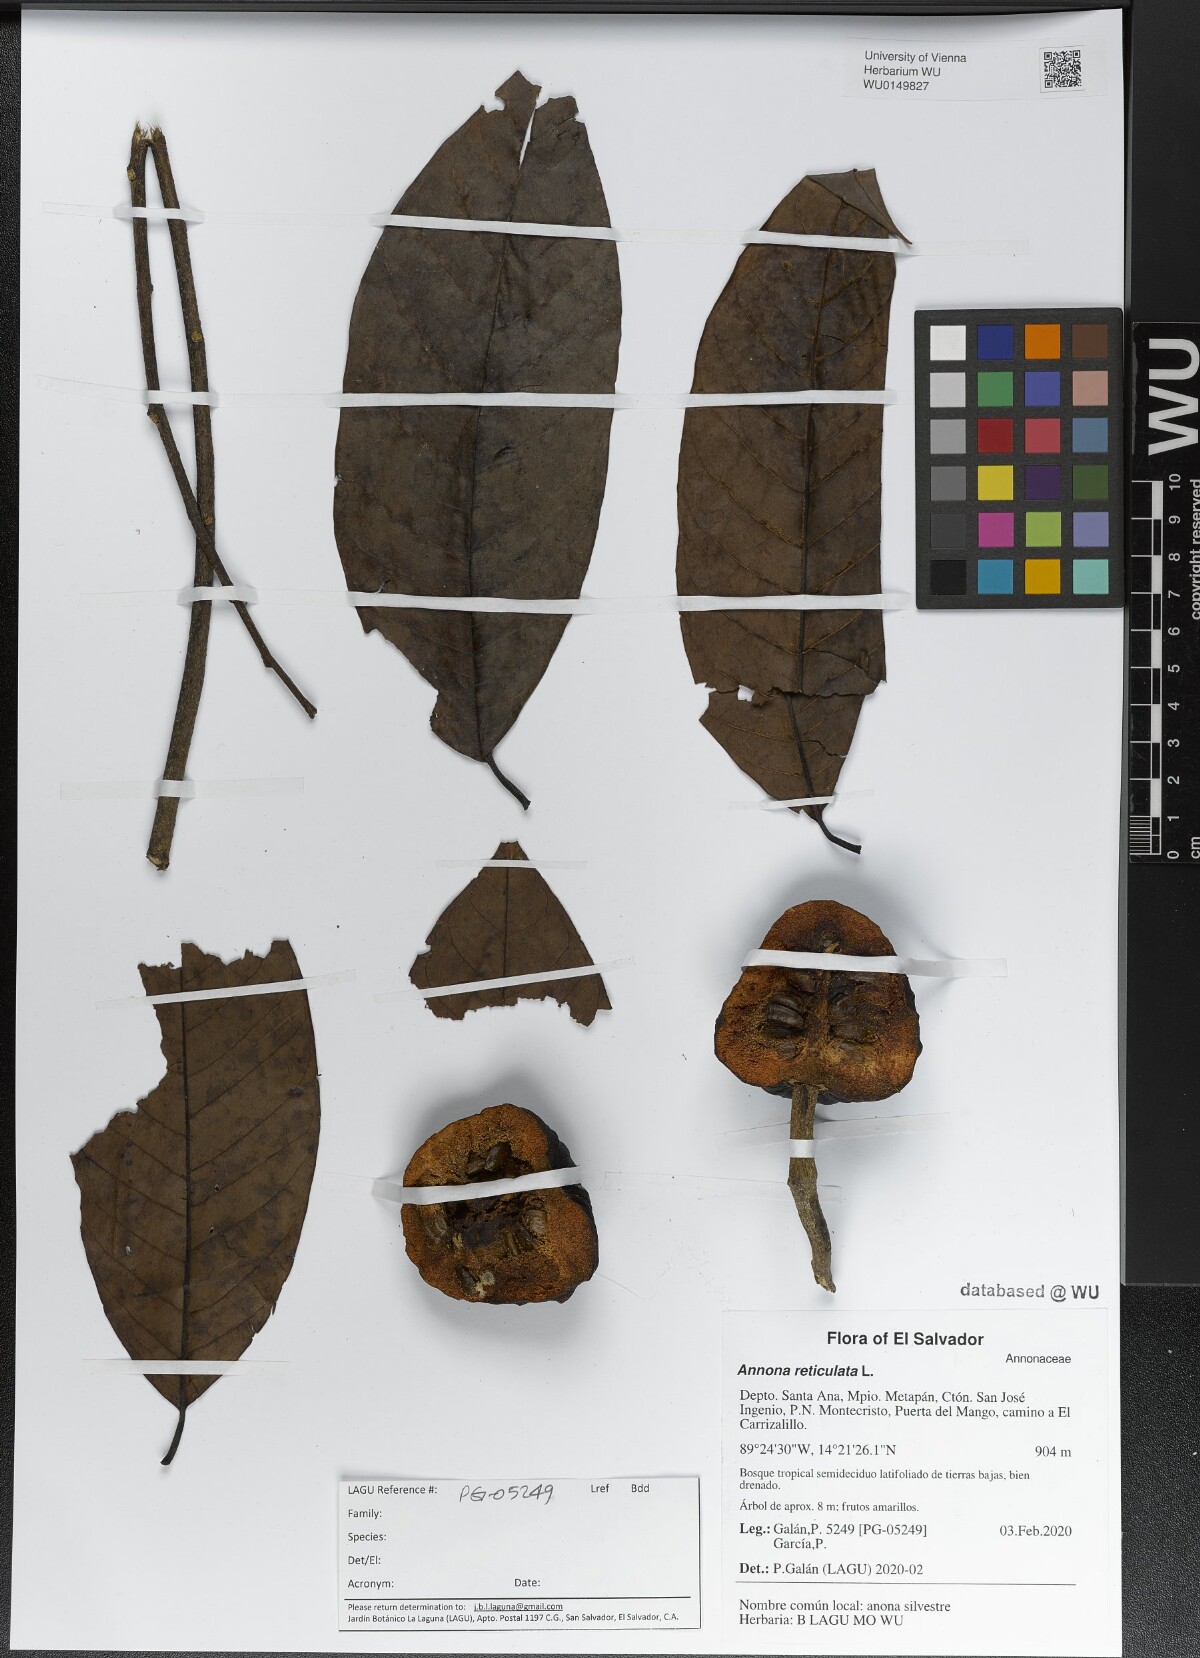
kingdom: Plantae
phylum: Tracheophyta
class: Magnoliopsida
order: Magnoliales
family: Annonaceae
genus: Annona
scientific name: Annona reticulata
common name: Custard apple
